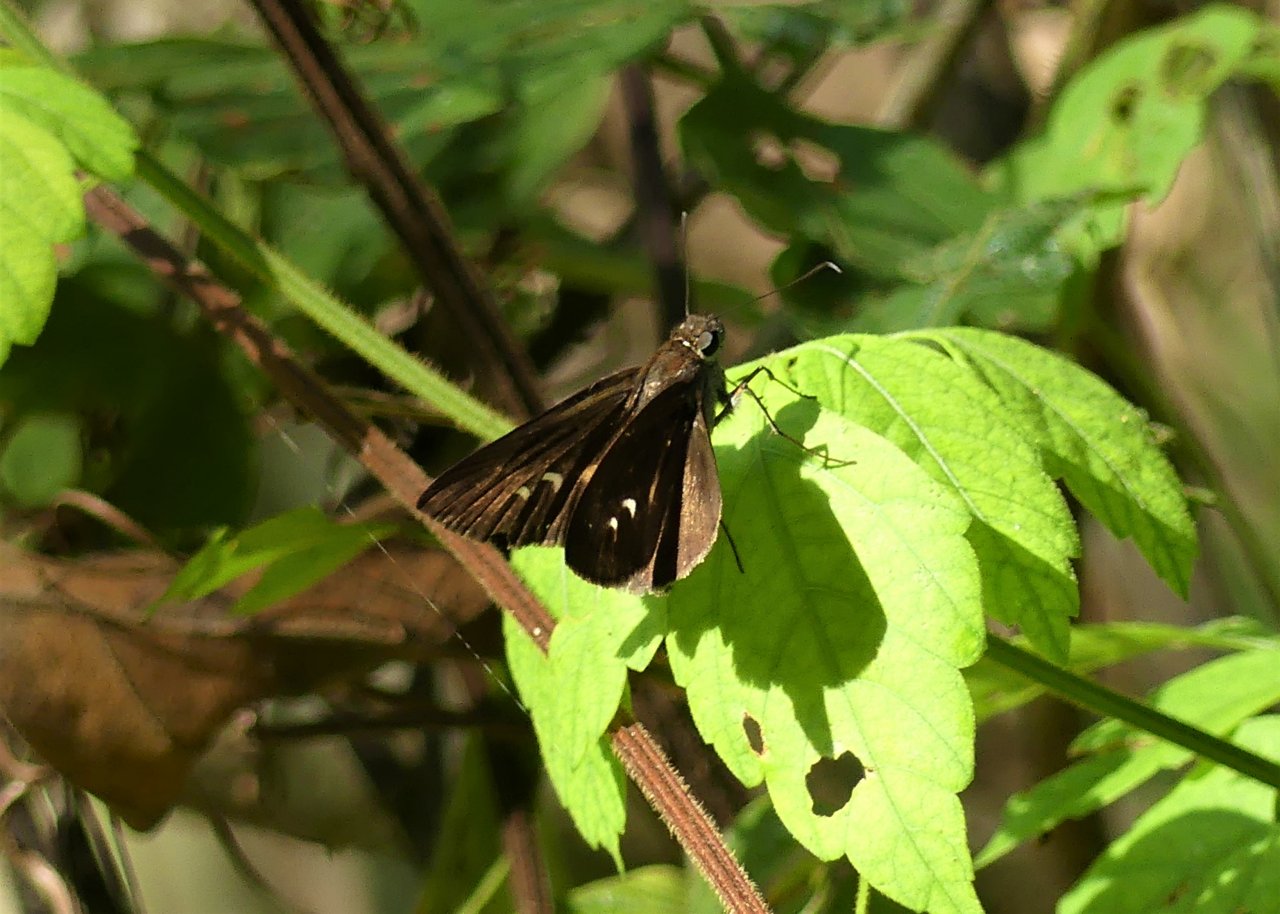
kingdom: Animalia
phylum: Arthropoda
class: Insecta
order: Lepidoptera
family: Hesperiidae
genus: Panoquina
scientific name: Panoquina ocola
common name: Ocola Skipper
